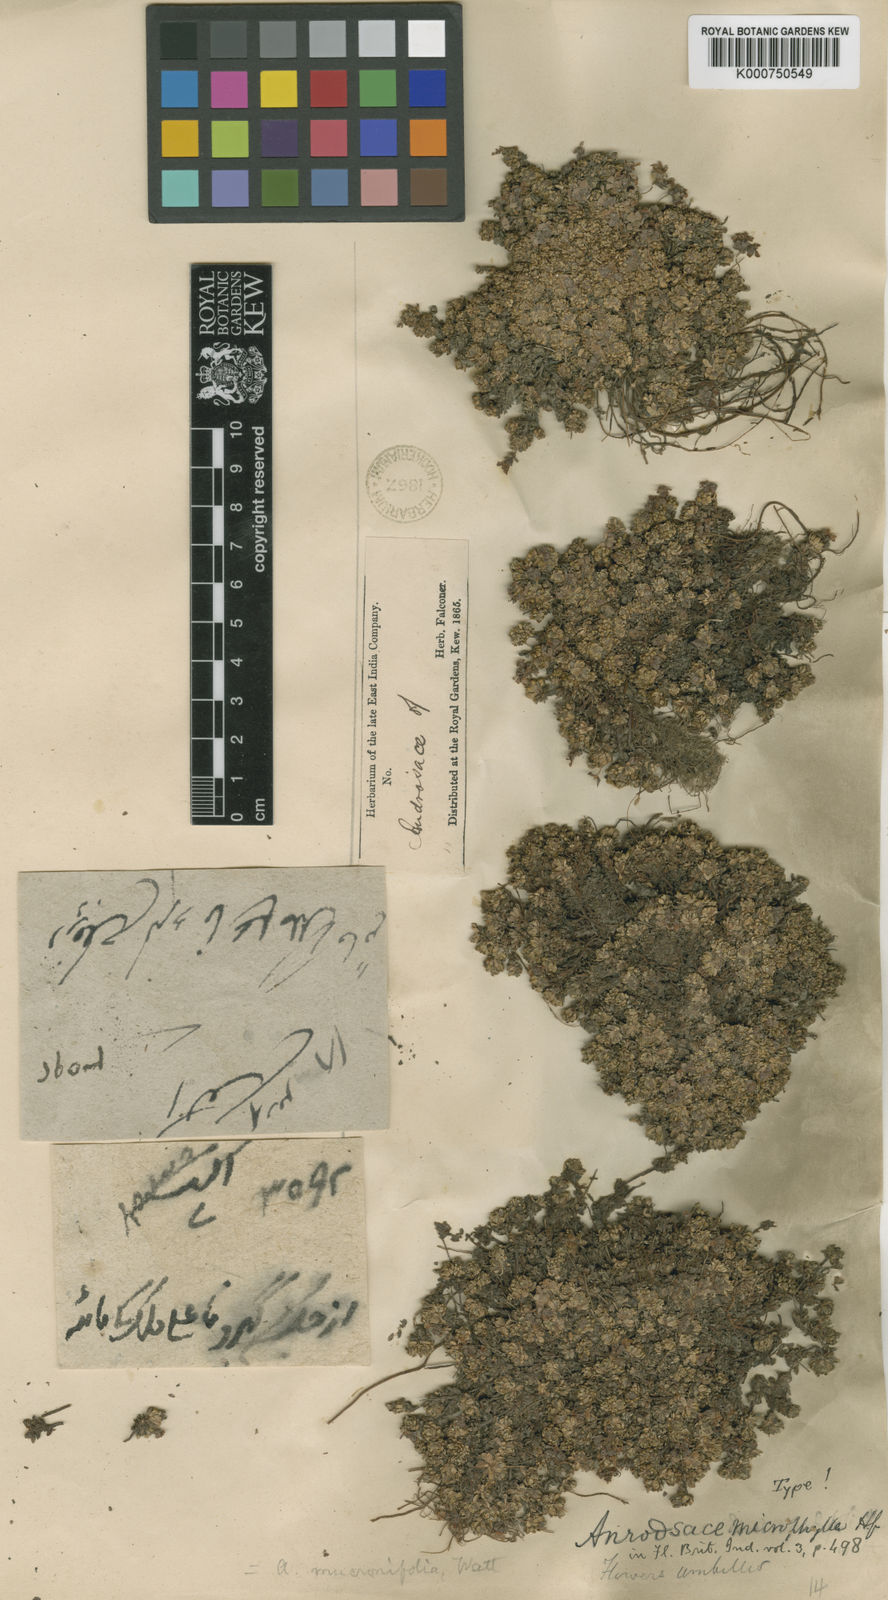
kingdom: Plantae
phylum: Tracheophyta
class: Magnoliopsida
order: Ericales
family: Primulaceae
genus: Androsace
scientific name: Androsace mucronifolia
